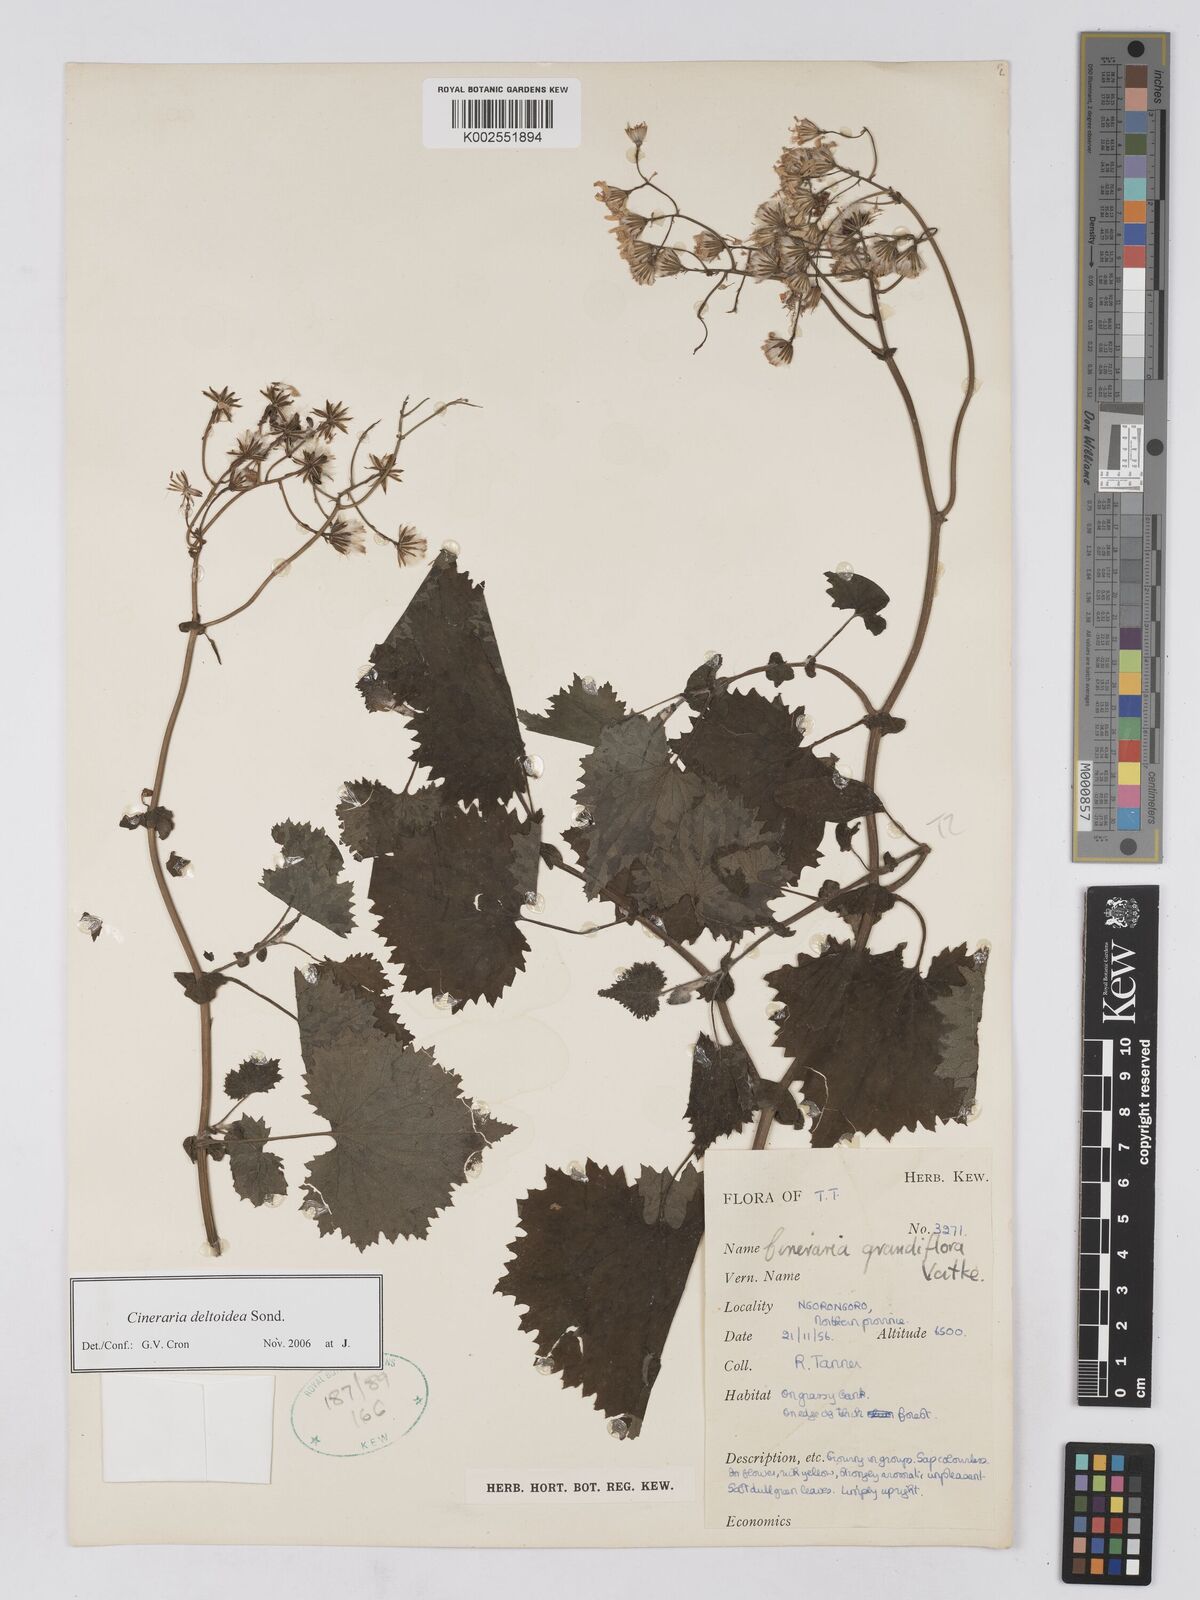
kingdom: Plantae
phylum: Tracheophyta
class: Magnoliopsida
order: Asterales
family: Asteraceae
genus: Cineraria
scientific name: Cineraria deltoidea
